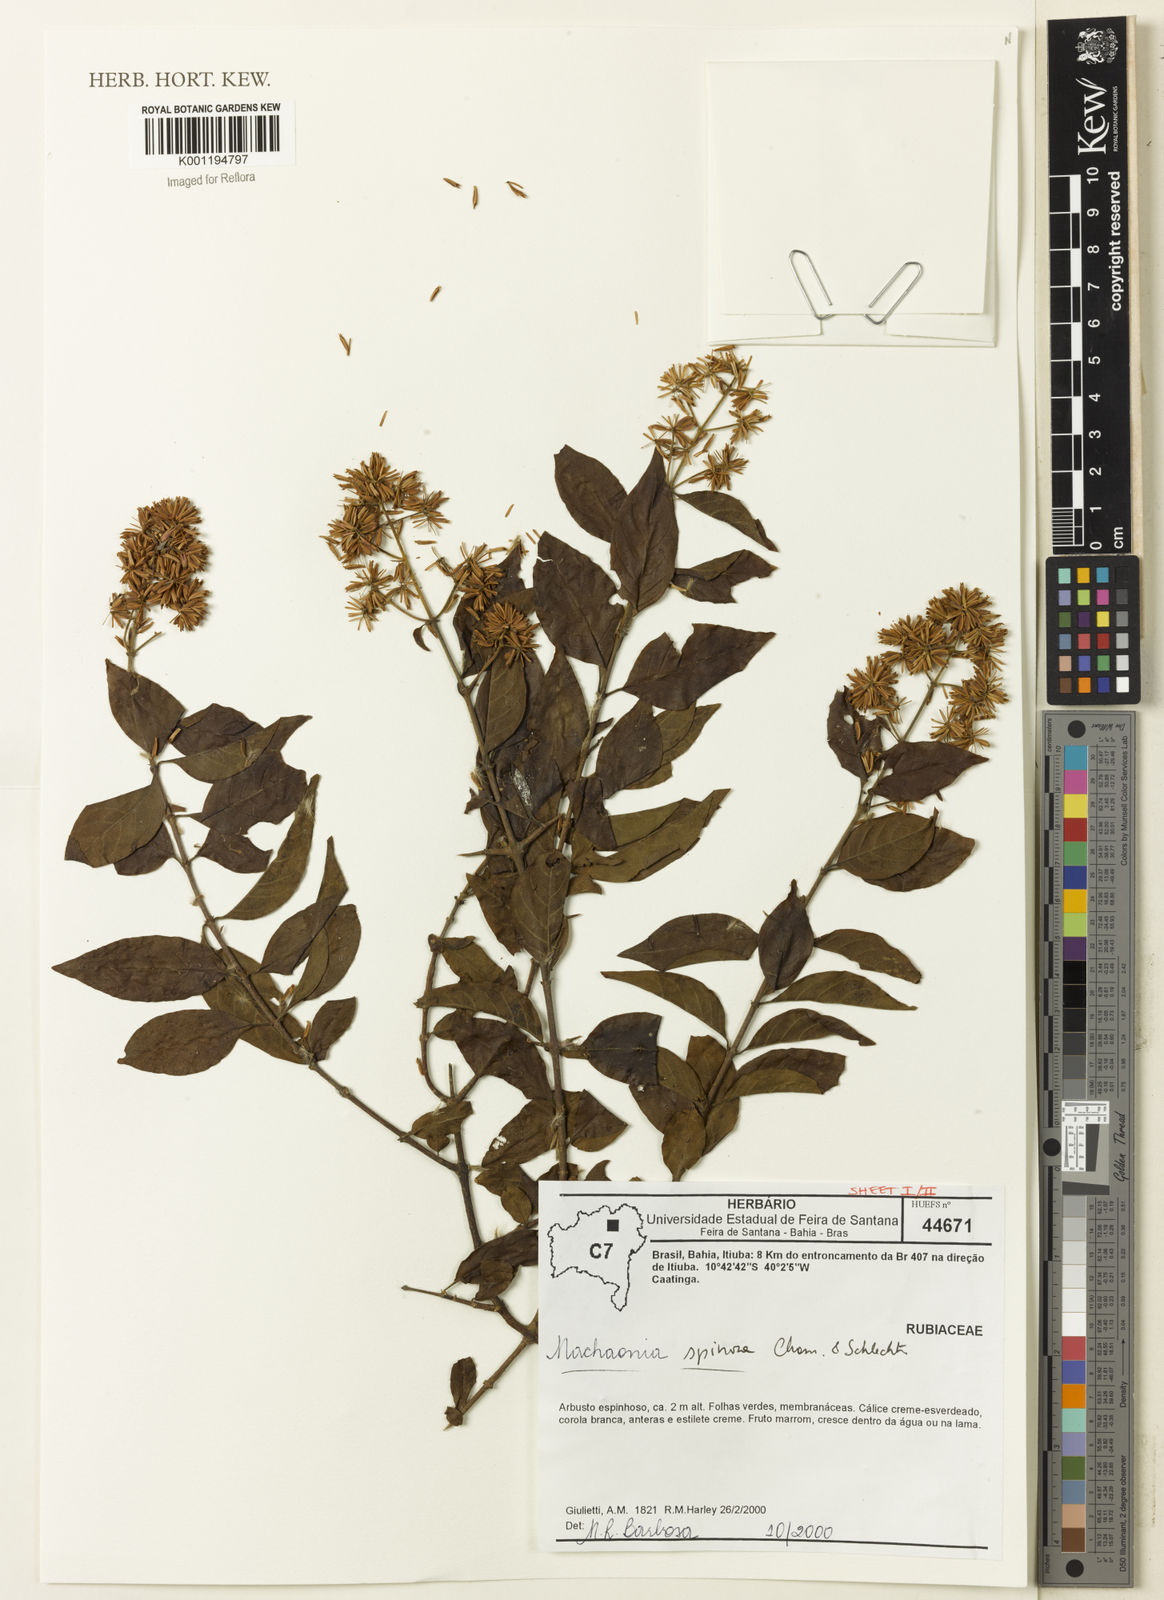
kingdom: Plantae
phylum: Tracheophyta
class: Magnoliopsida
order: Gentianales
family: Rubiaceae
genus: Machaonia
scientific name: Machaonia brasiliensis
